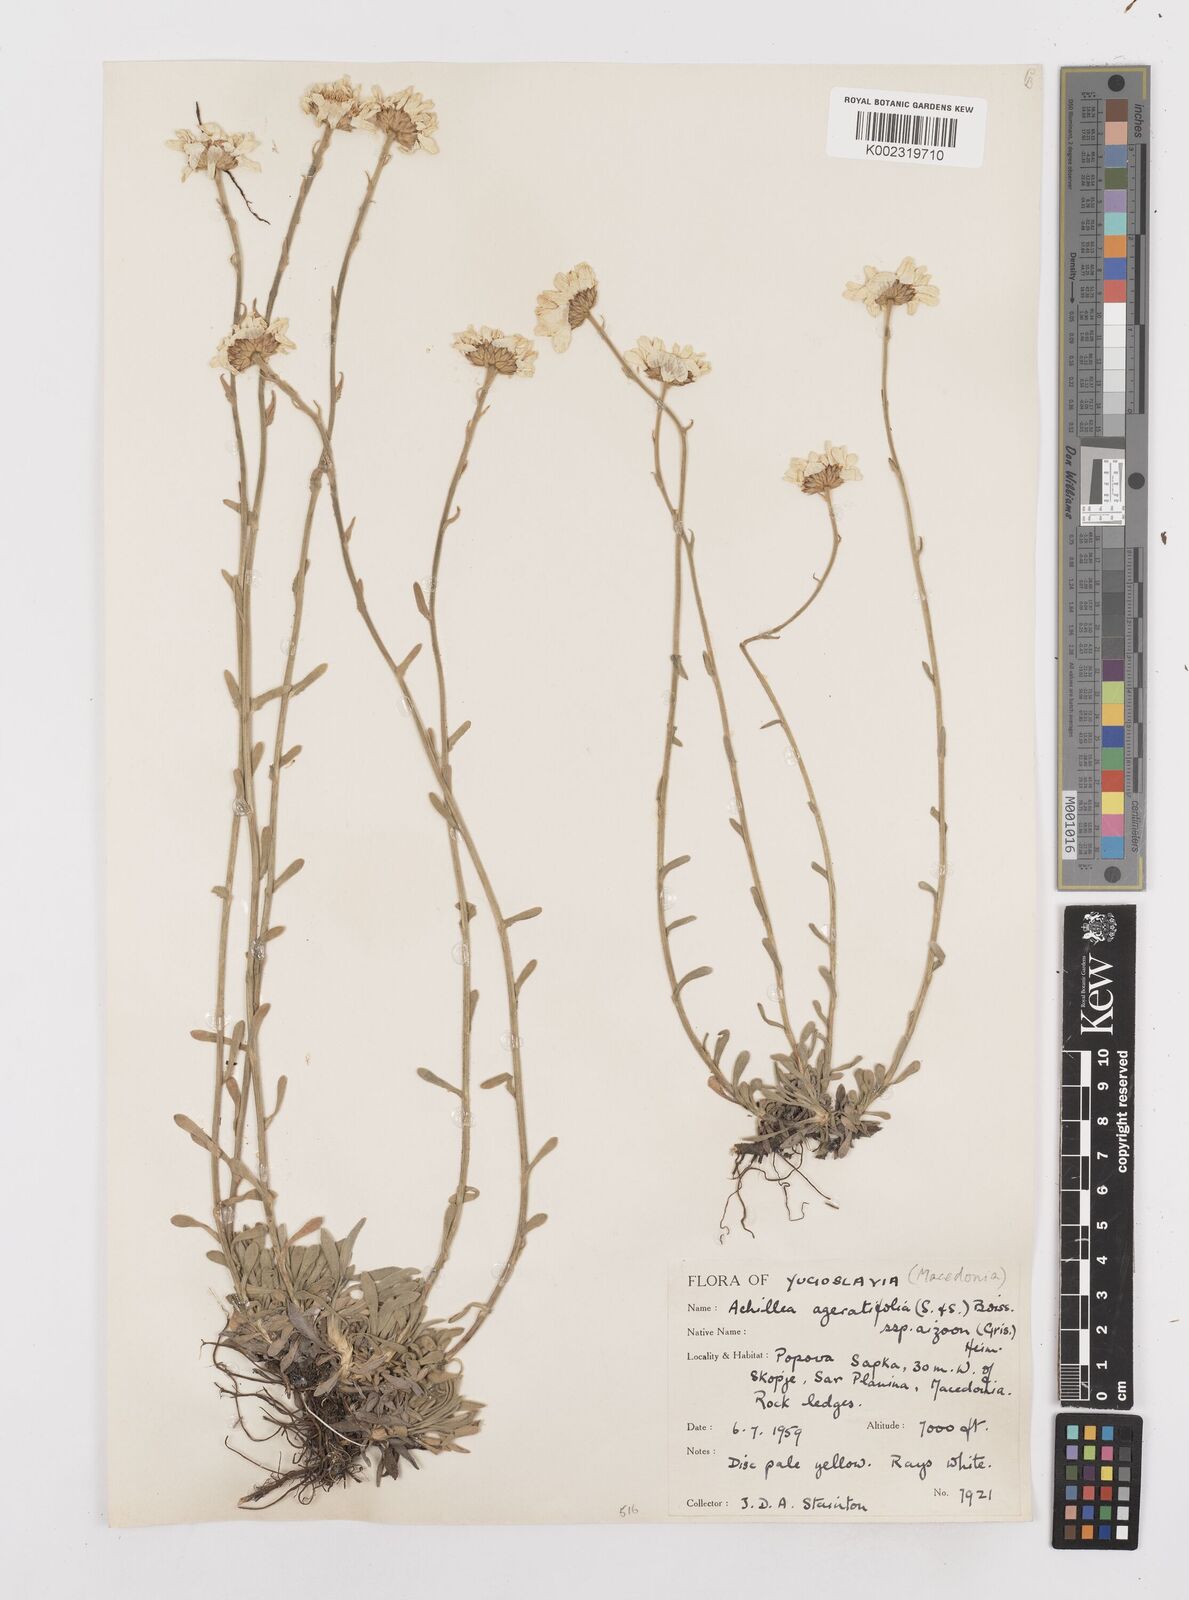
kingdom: Plantae
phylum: Tracheophyta
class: Magnoliopsida
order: Asterales
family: Asteraceae
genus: Achillea
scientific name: Achillea ageratifolia
